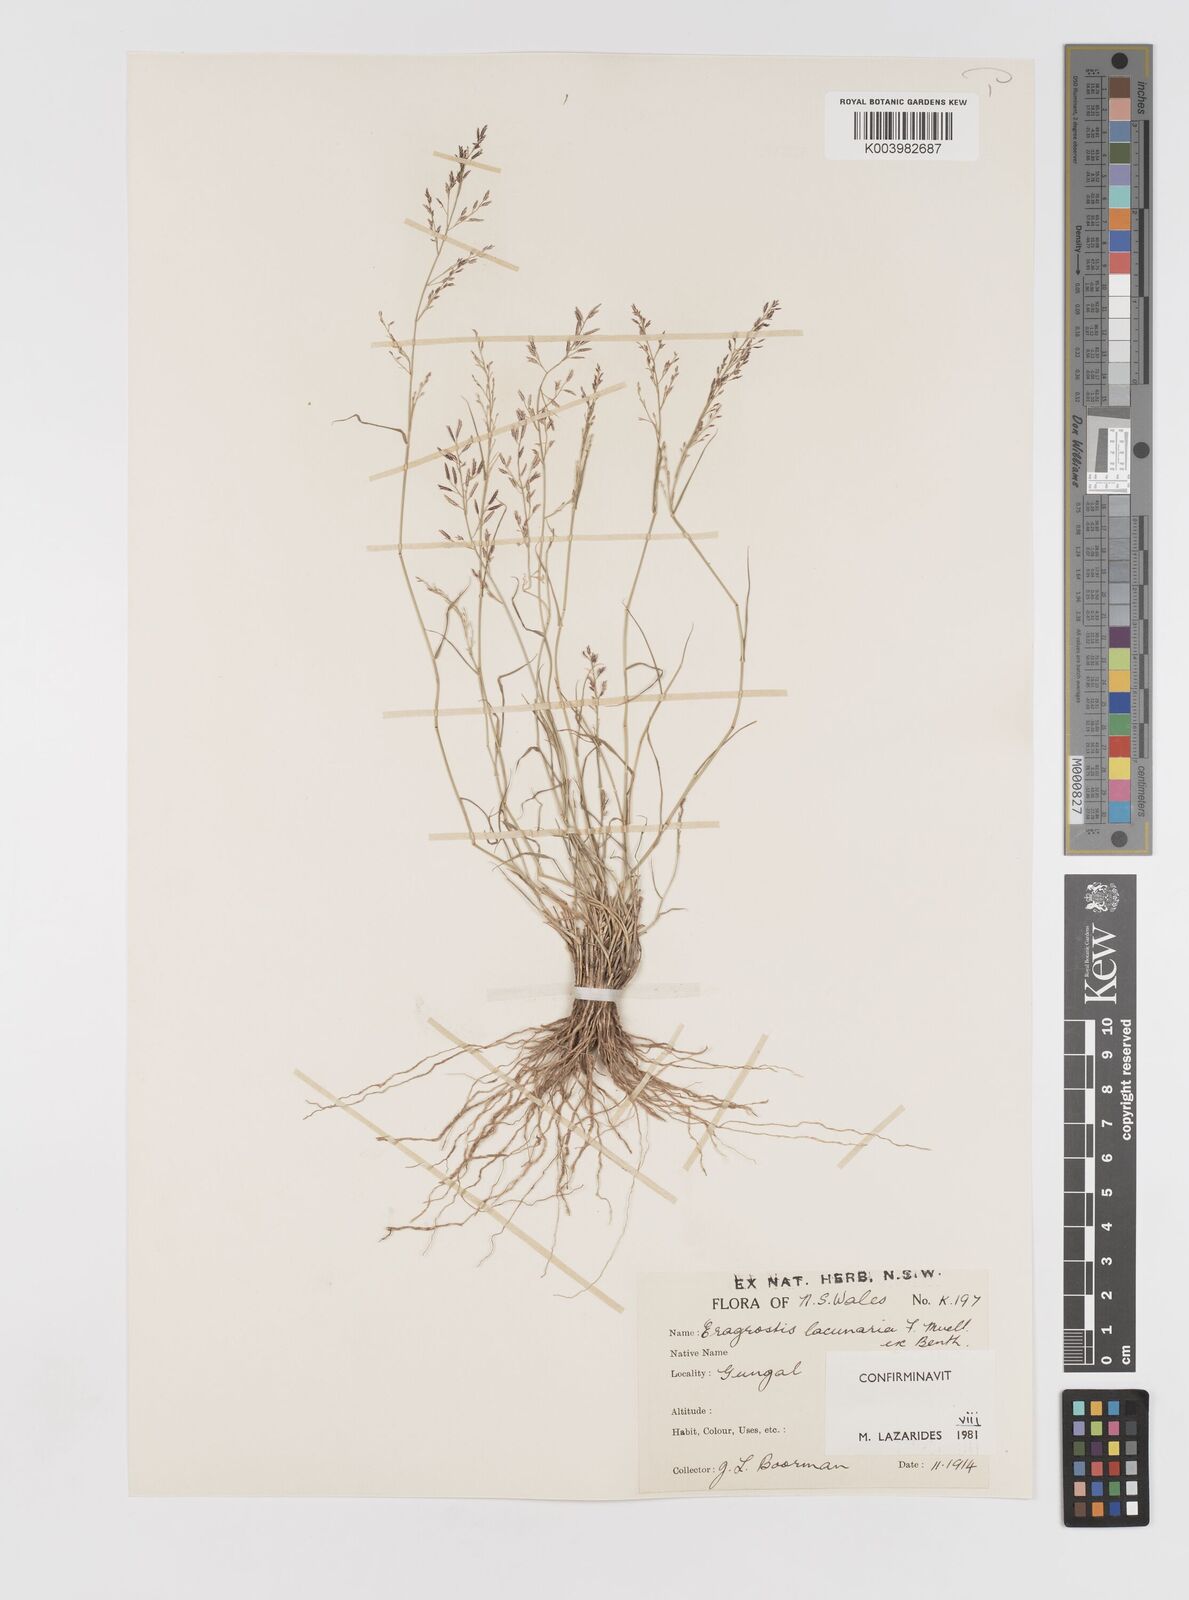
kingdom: Plantae
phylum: Tracheophyta
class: Liliopsida
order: Poales
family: Poaceae
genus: Eragrostis
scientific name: Eragrostis lacunaria
